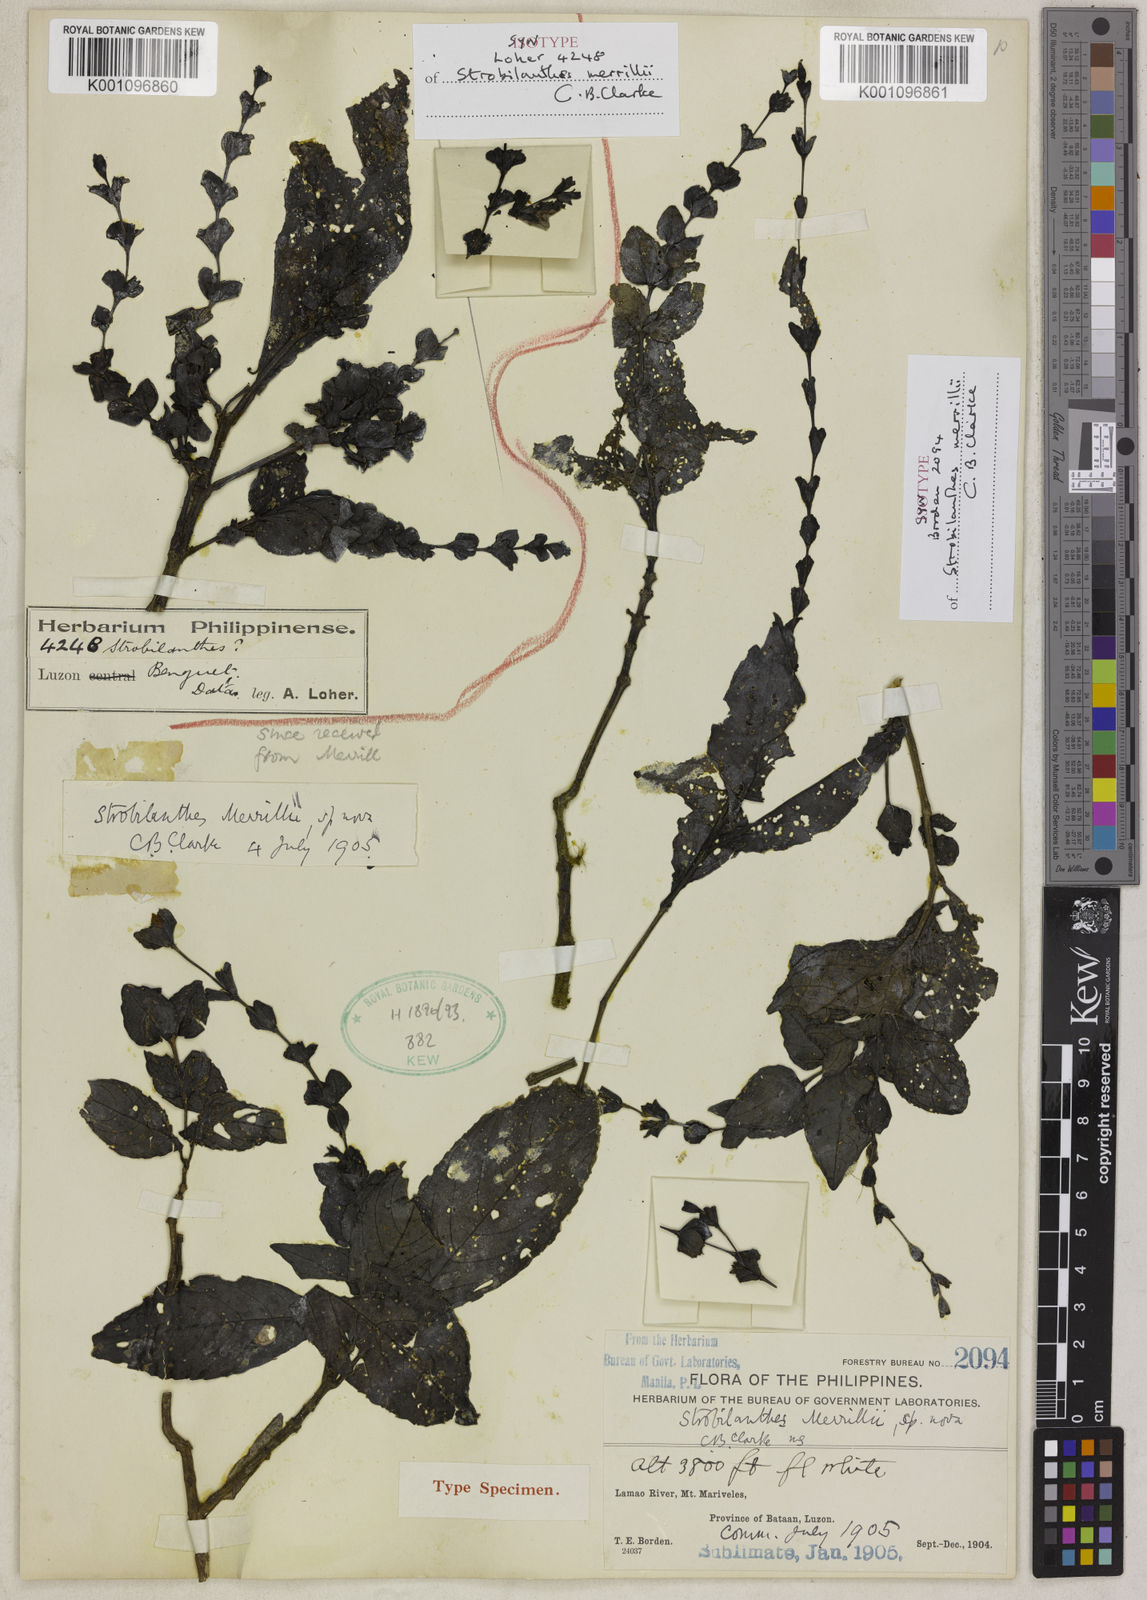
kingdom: Plantae
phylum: Tracheophyta
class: Magnoliopsida
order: Lamiales
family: Acanthaceae
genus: Strobilanthes
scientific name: Strobilanthes merrillii
